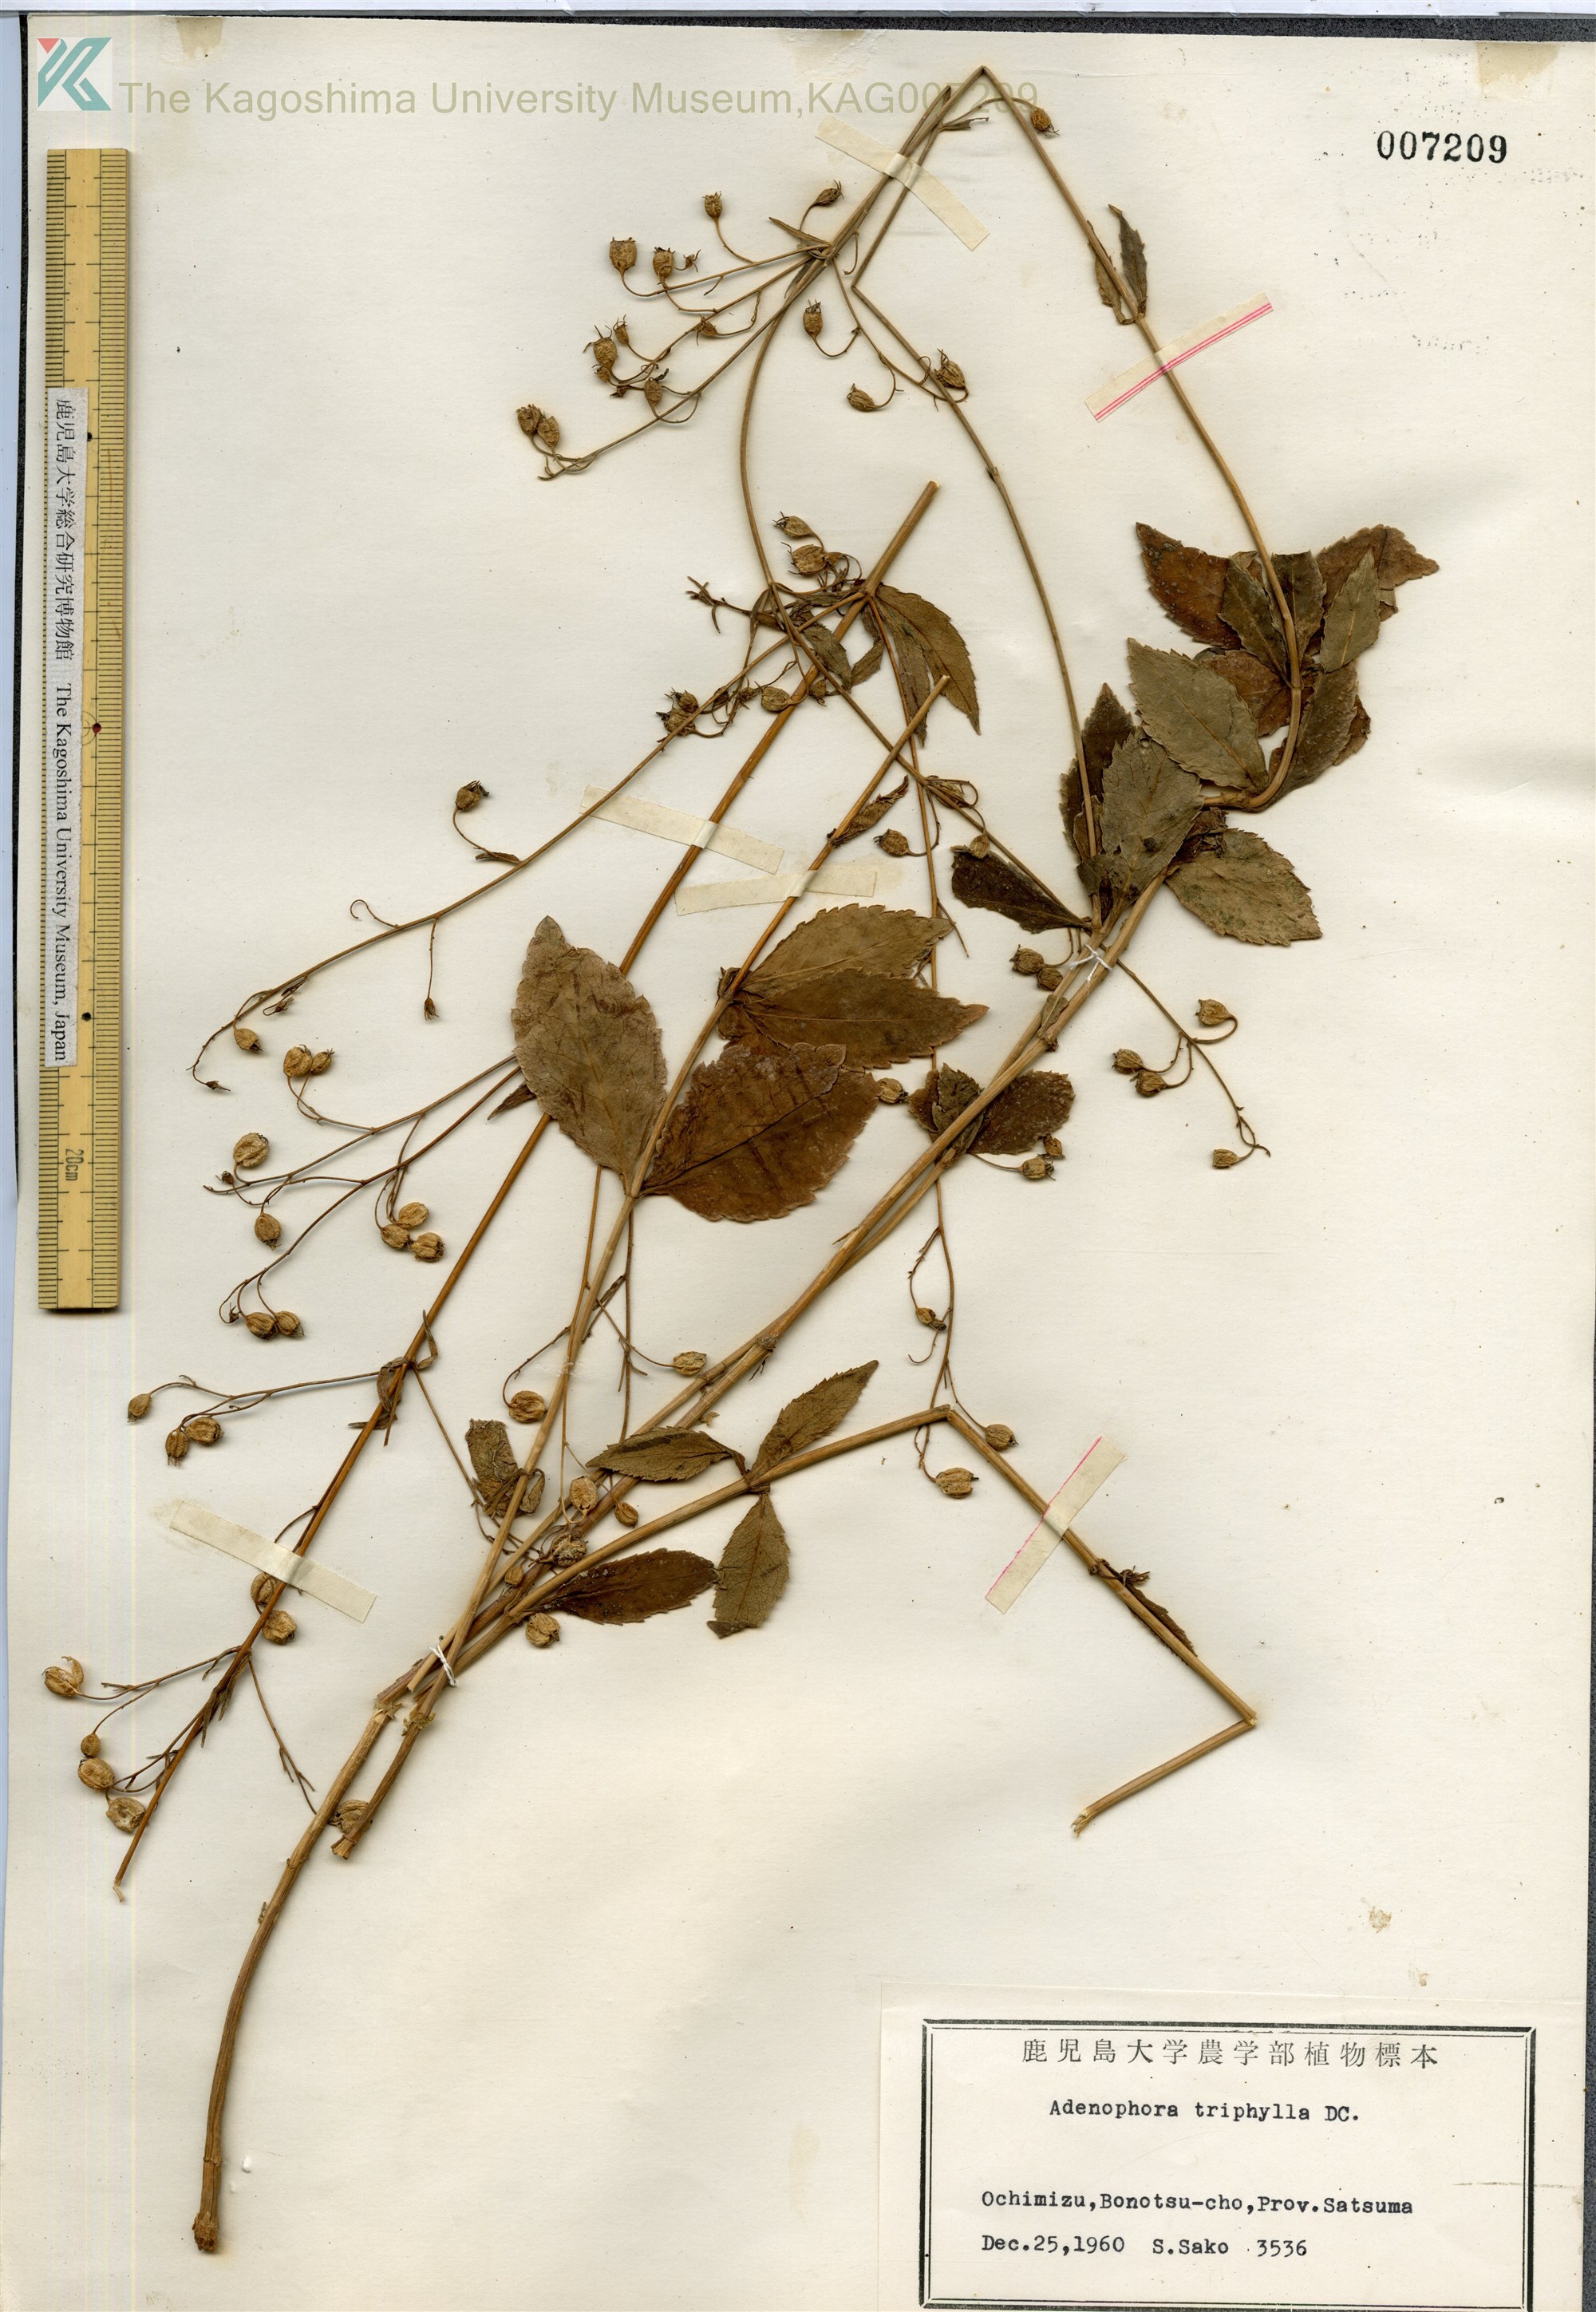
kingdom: Plantae
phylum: Tracheophyta
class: Magnoliopsida
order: Asterales
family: Campanulaceae
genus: Adenophora
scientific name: Adenophora triphylla
